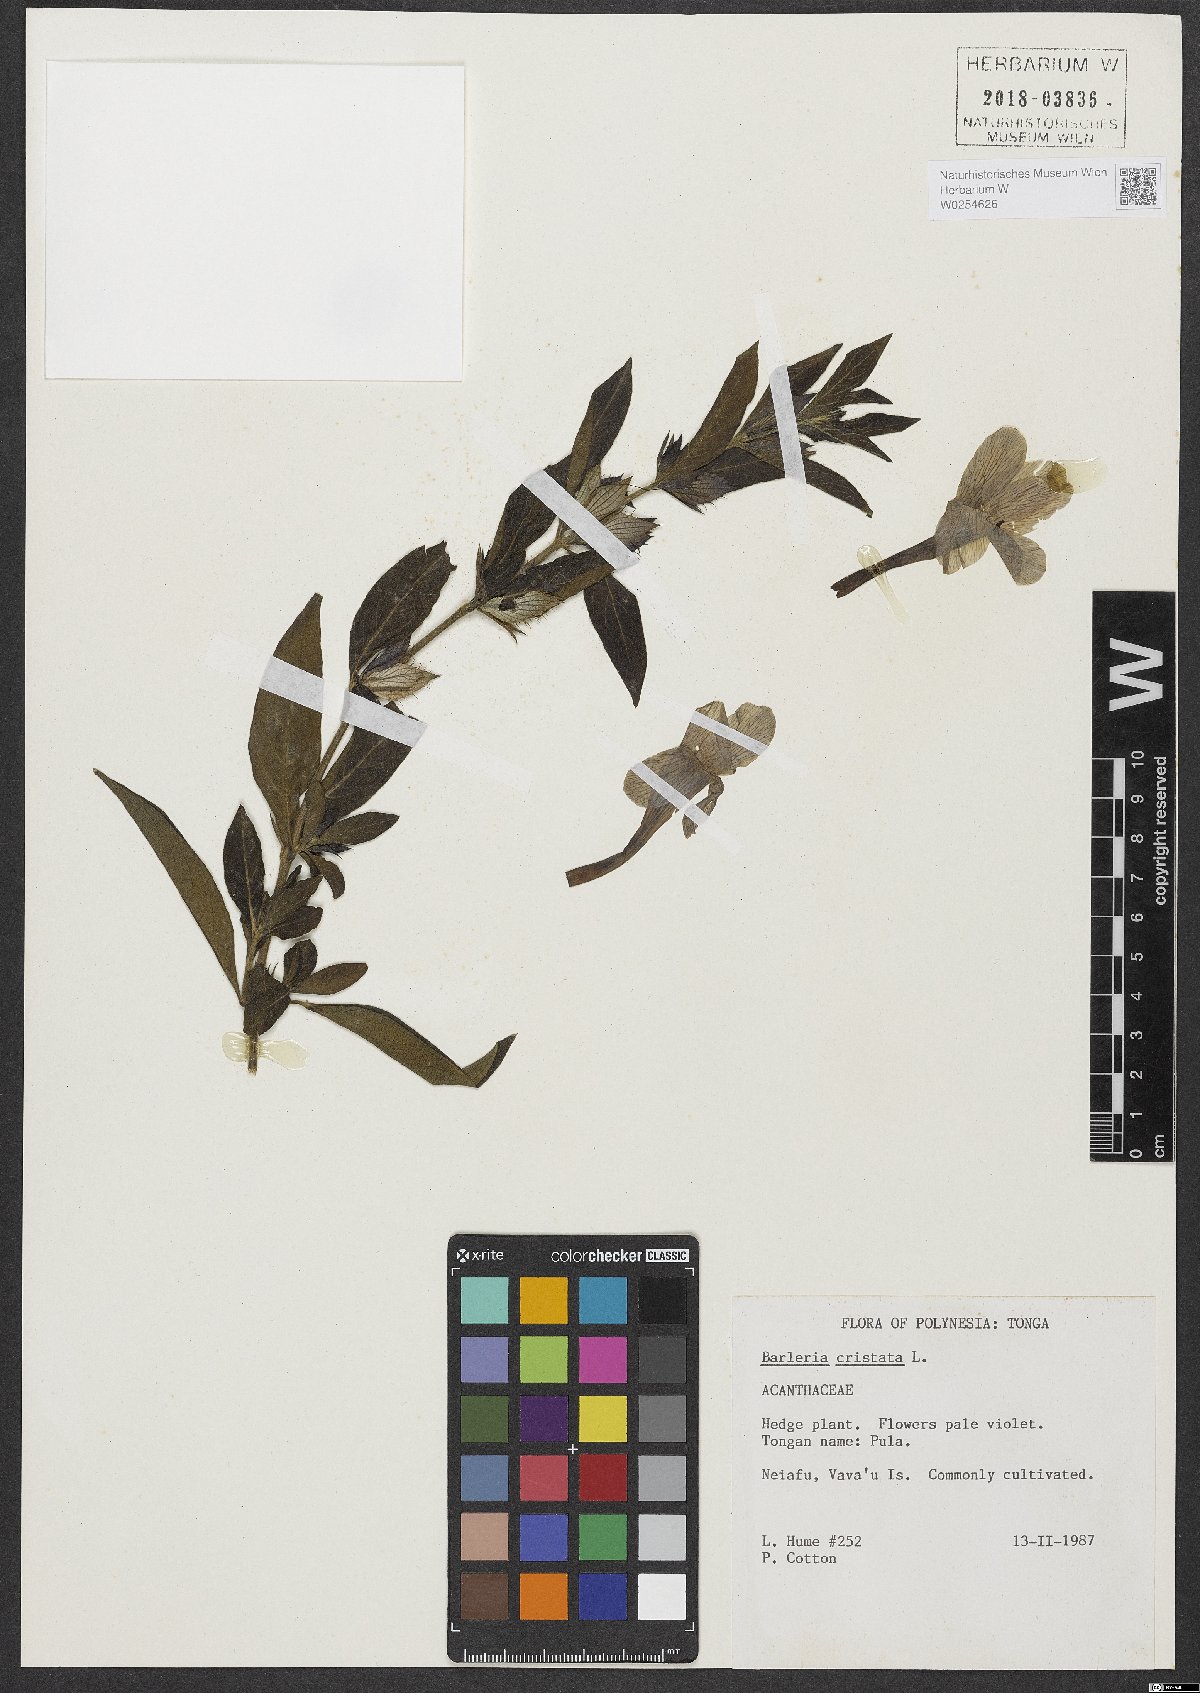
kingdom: Plantae
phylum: Tracheophyta
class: Magnoliopsida
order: Lamiales
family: Acanthaceae
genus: Barleria
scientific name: Barleria cristata
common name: Crested philippine violet
